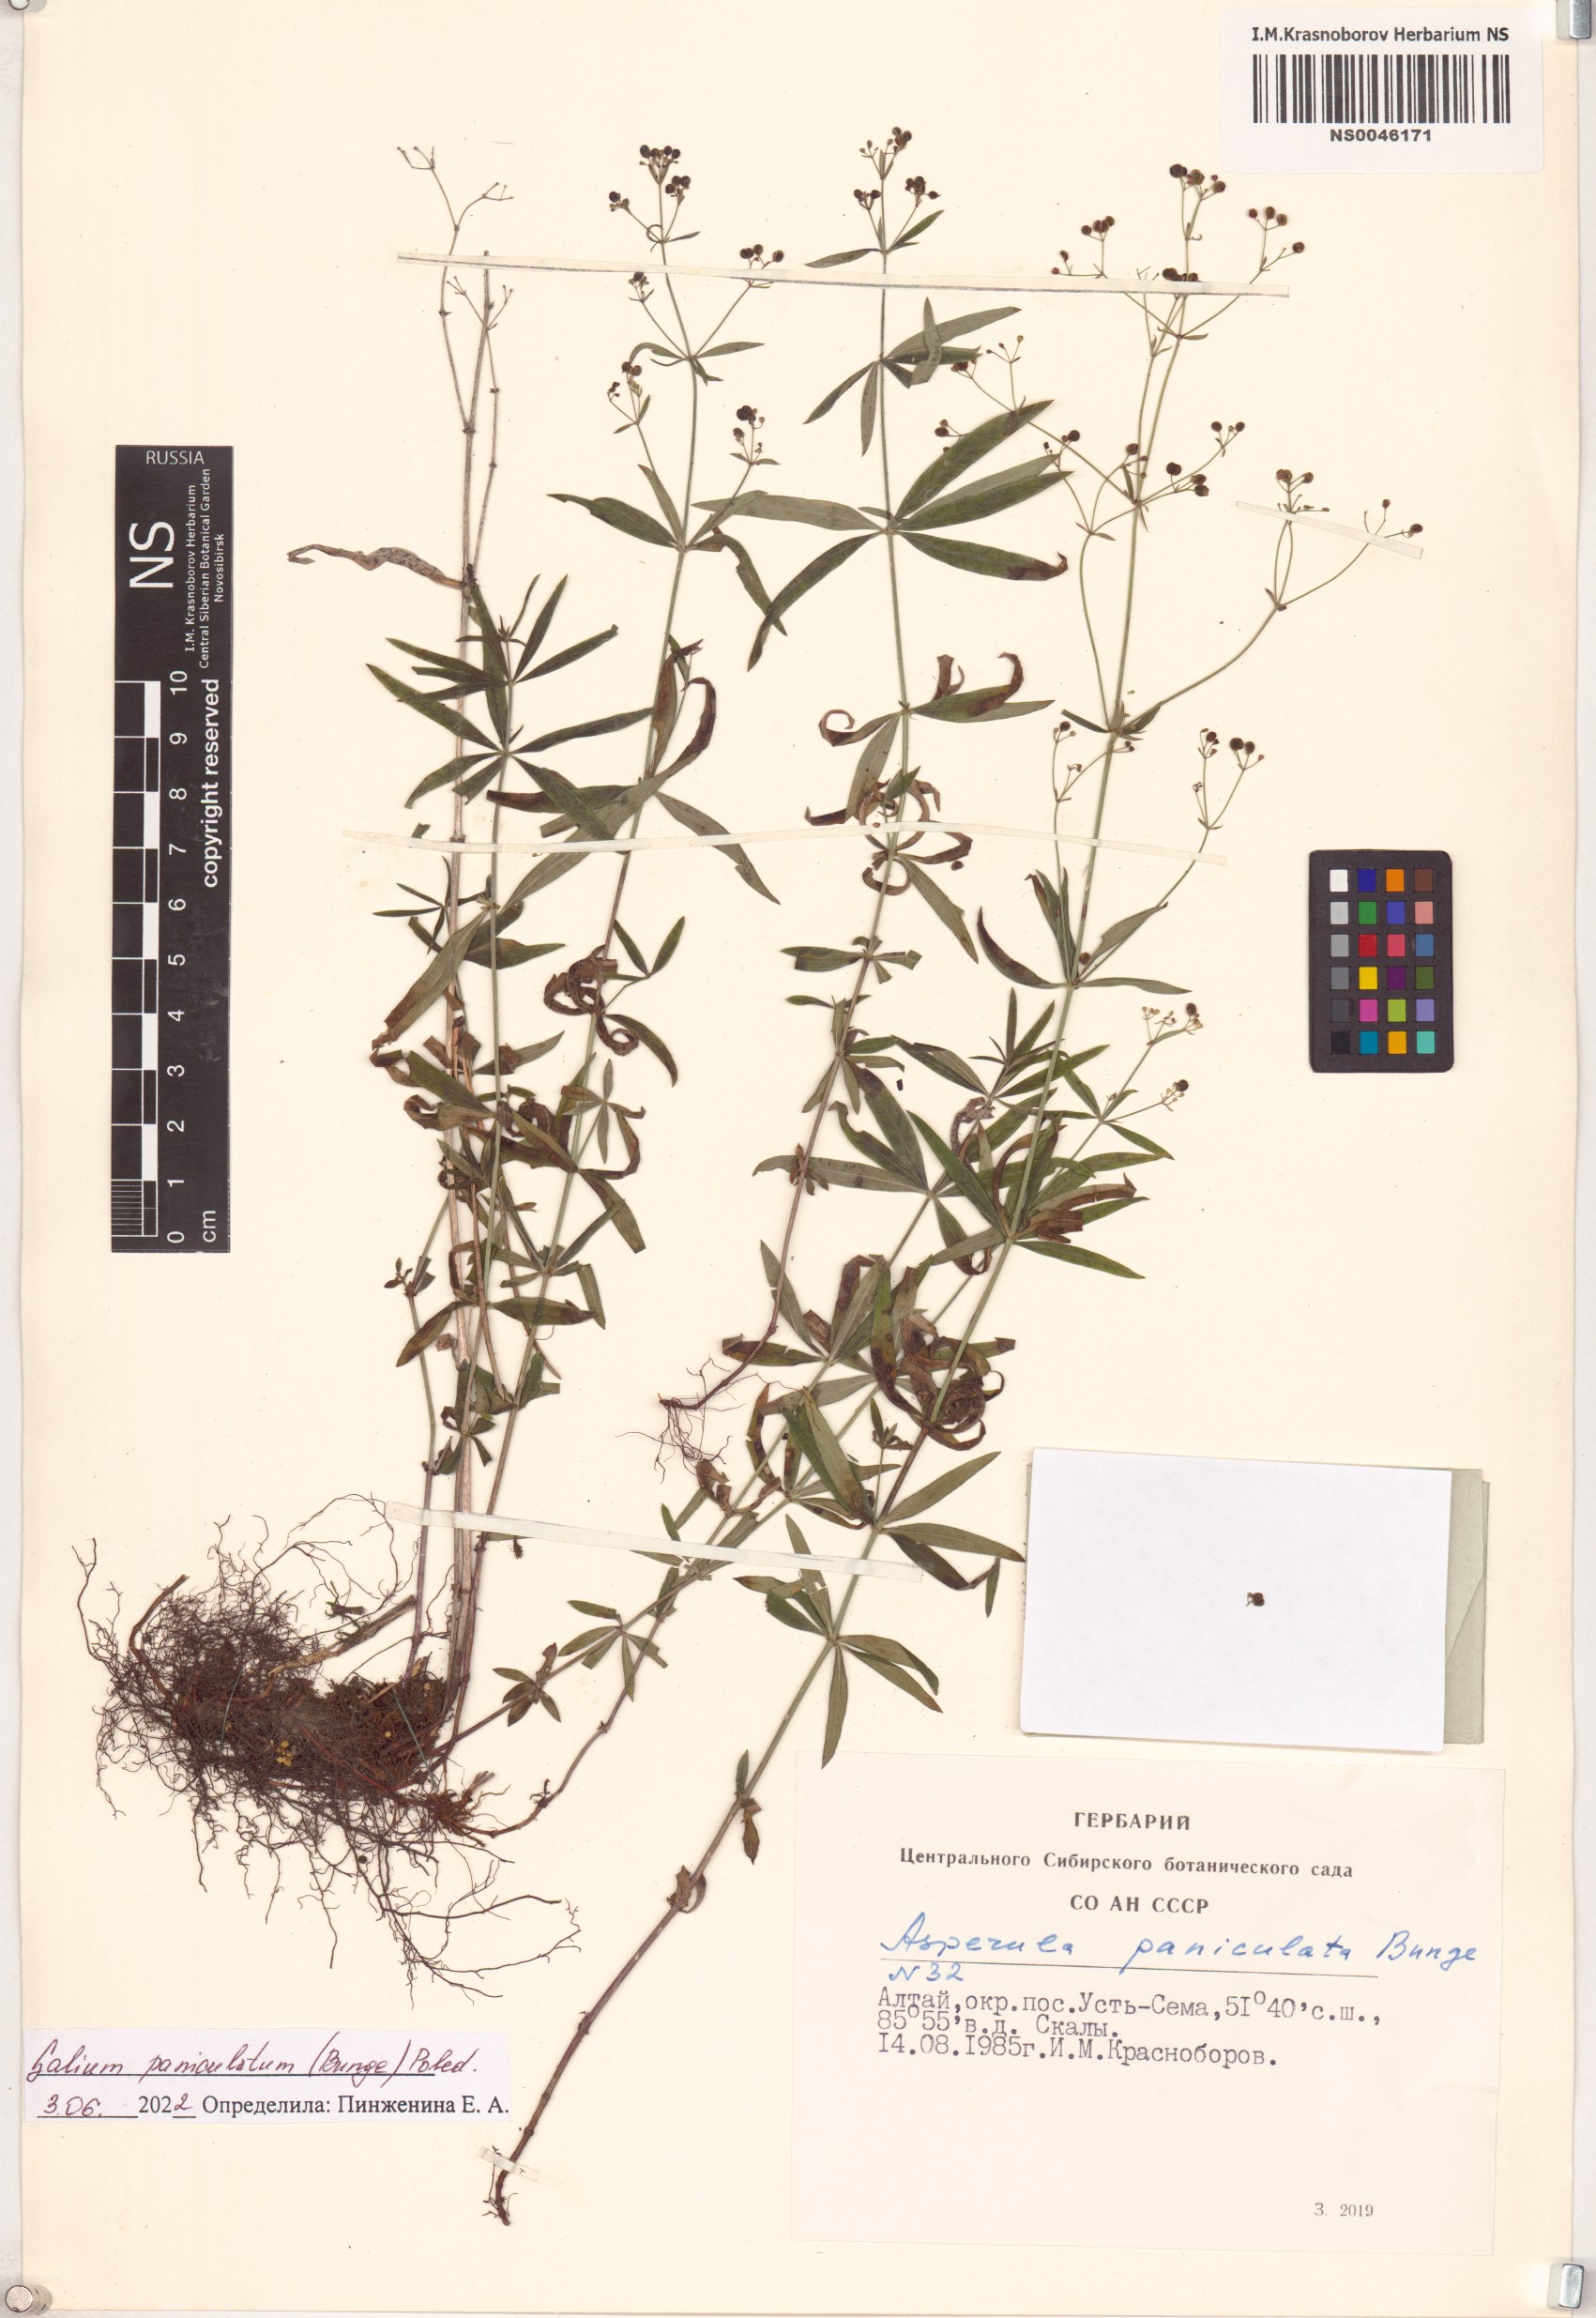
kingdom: Plantae
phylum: Tracheophyta
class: Magnoliopsida
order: Gentianales
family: Rubiaceae
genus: Galium
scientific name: Galium paniculatum
